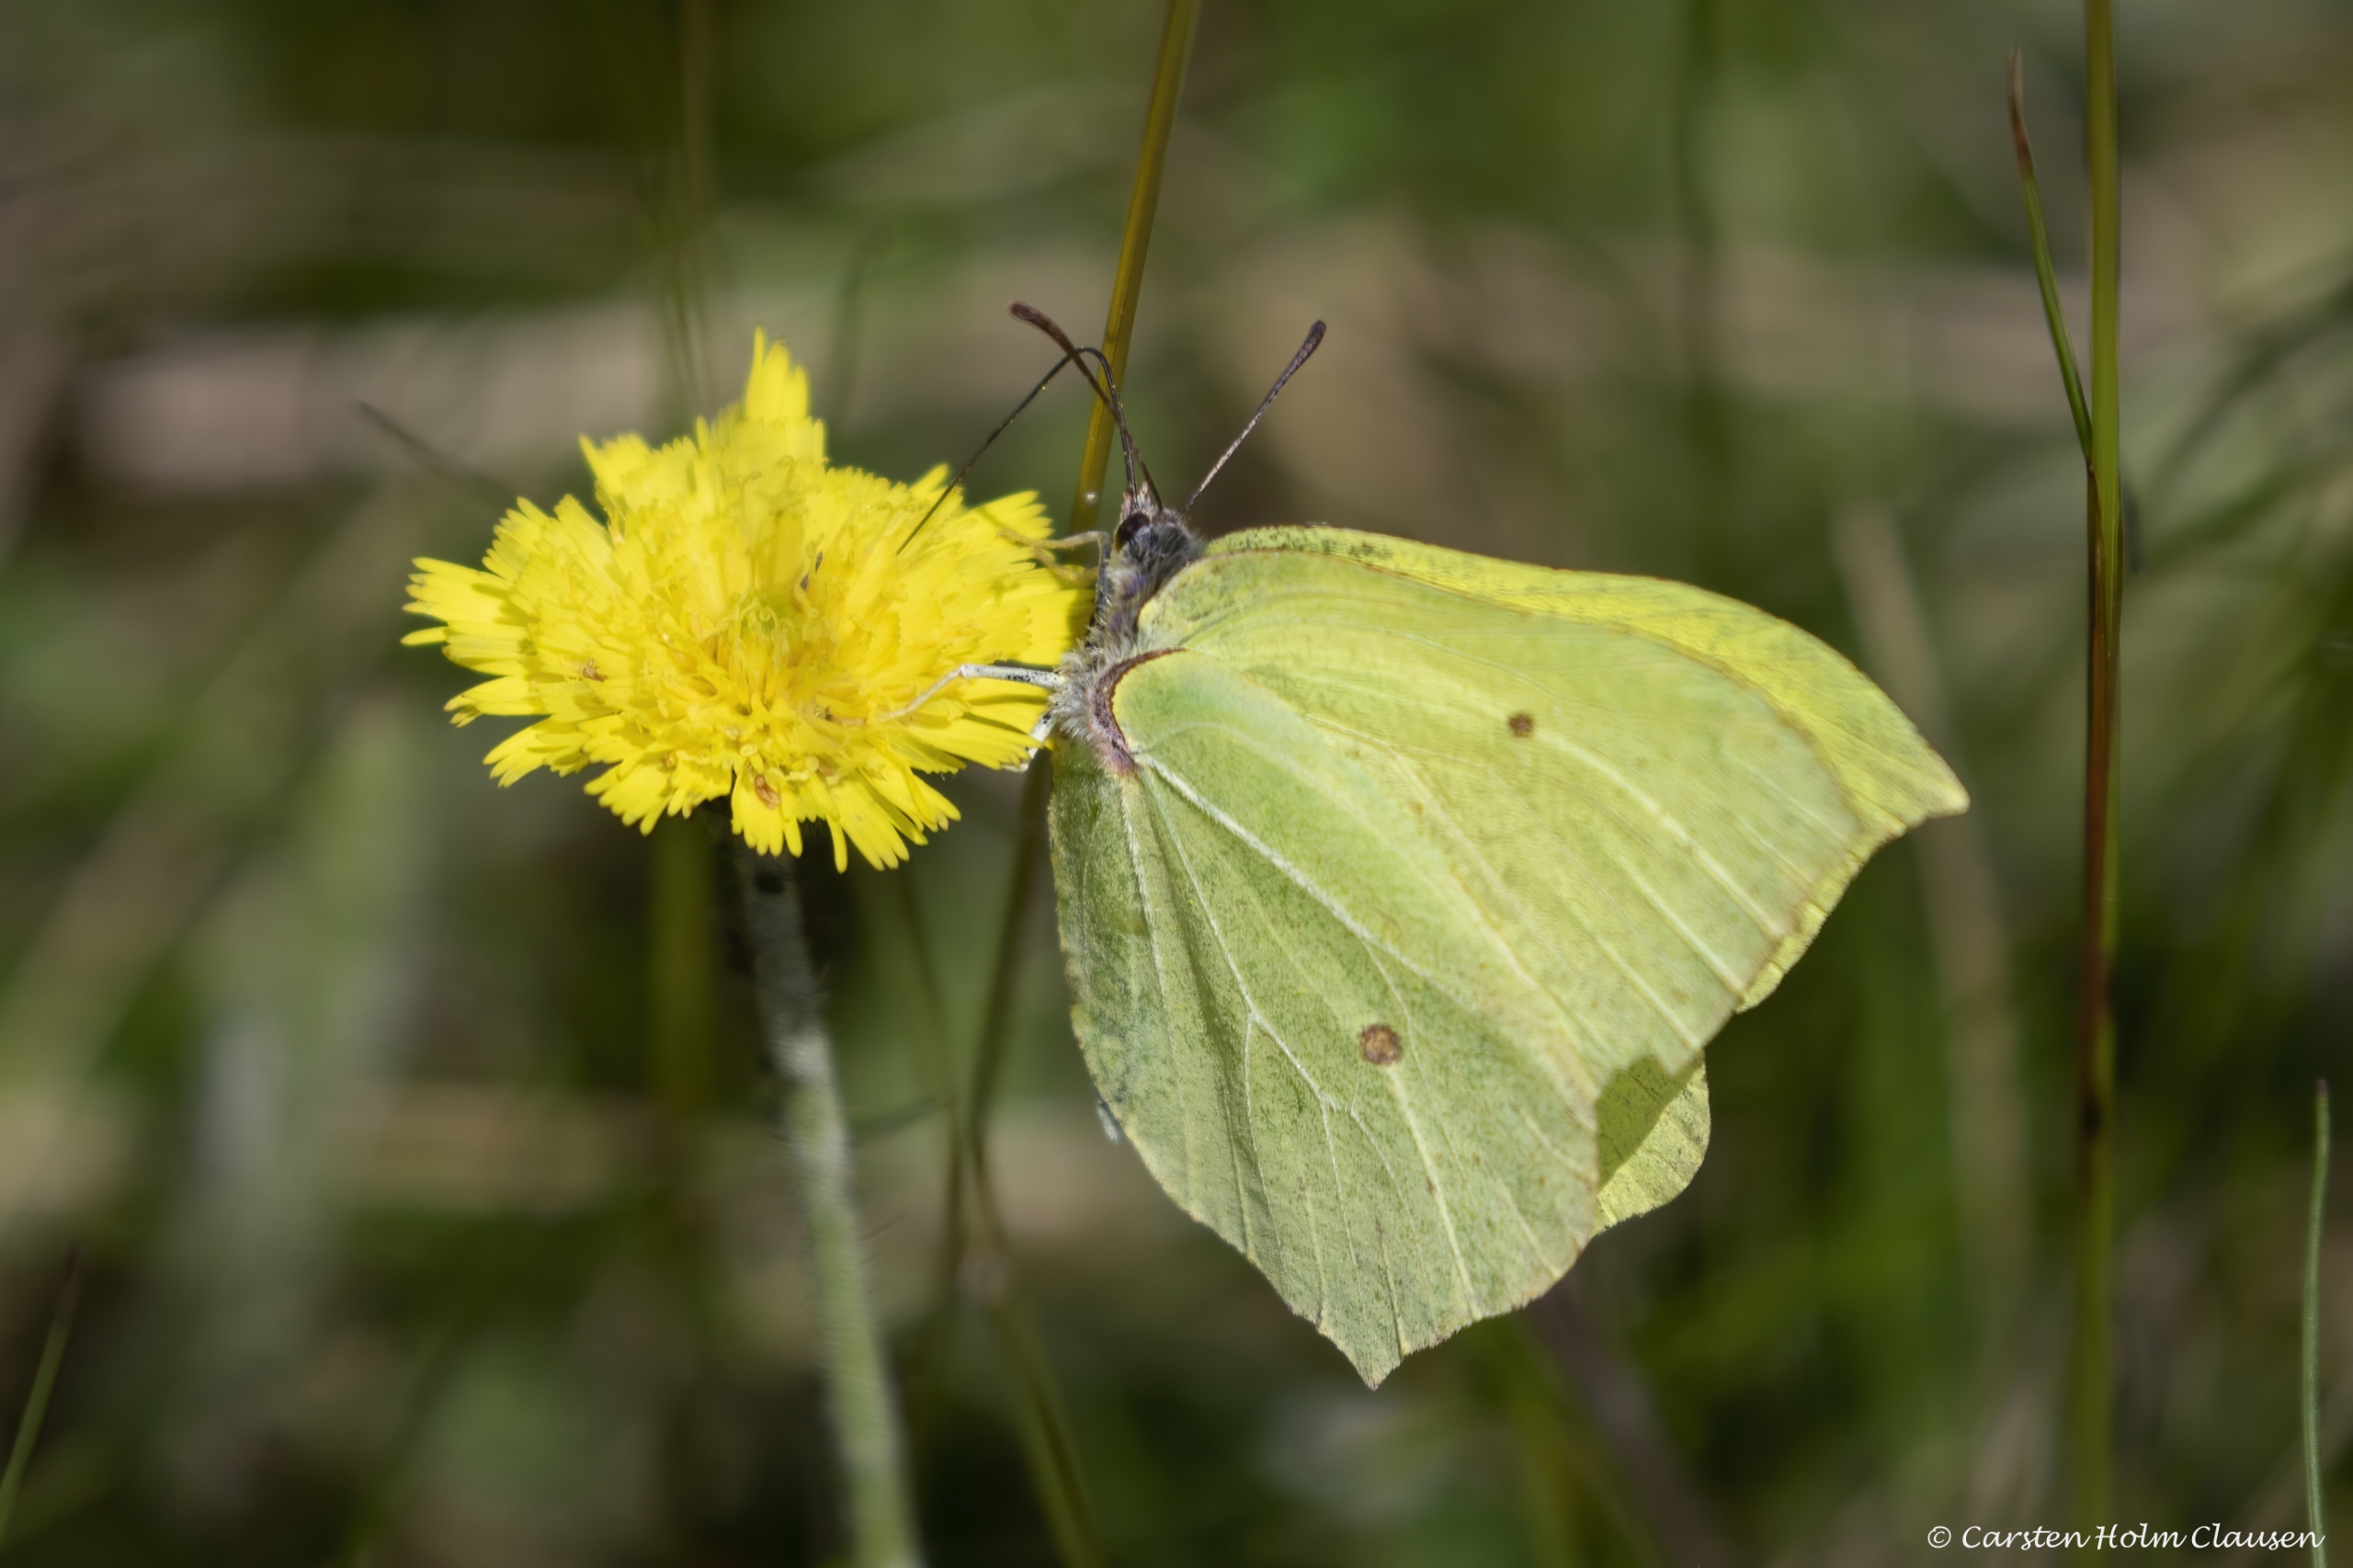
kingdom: Animalia
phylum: Arthropoda
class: Insecta
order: Lepidoptera
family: Pieridae
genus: Gonepteryx
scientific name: Gonepteryx rhamni
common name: Citronsommerfugl
